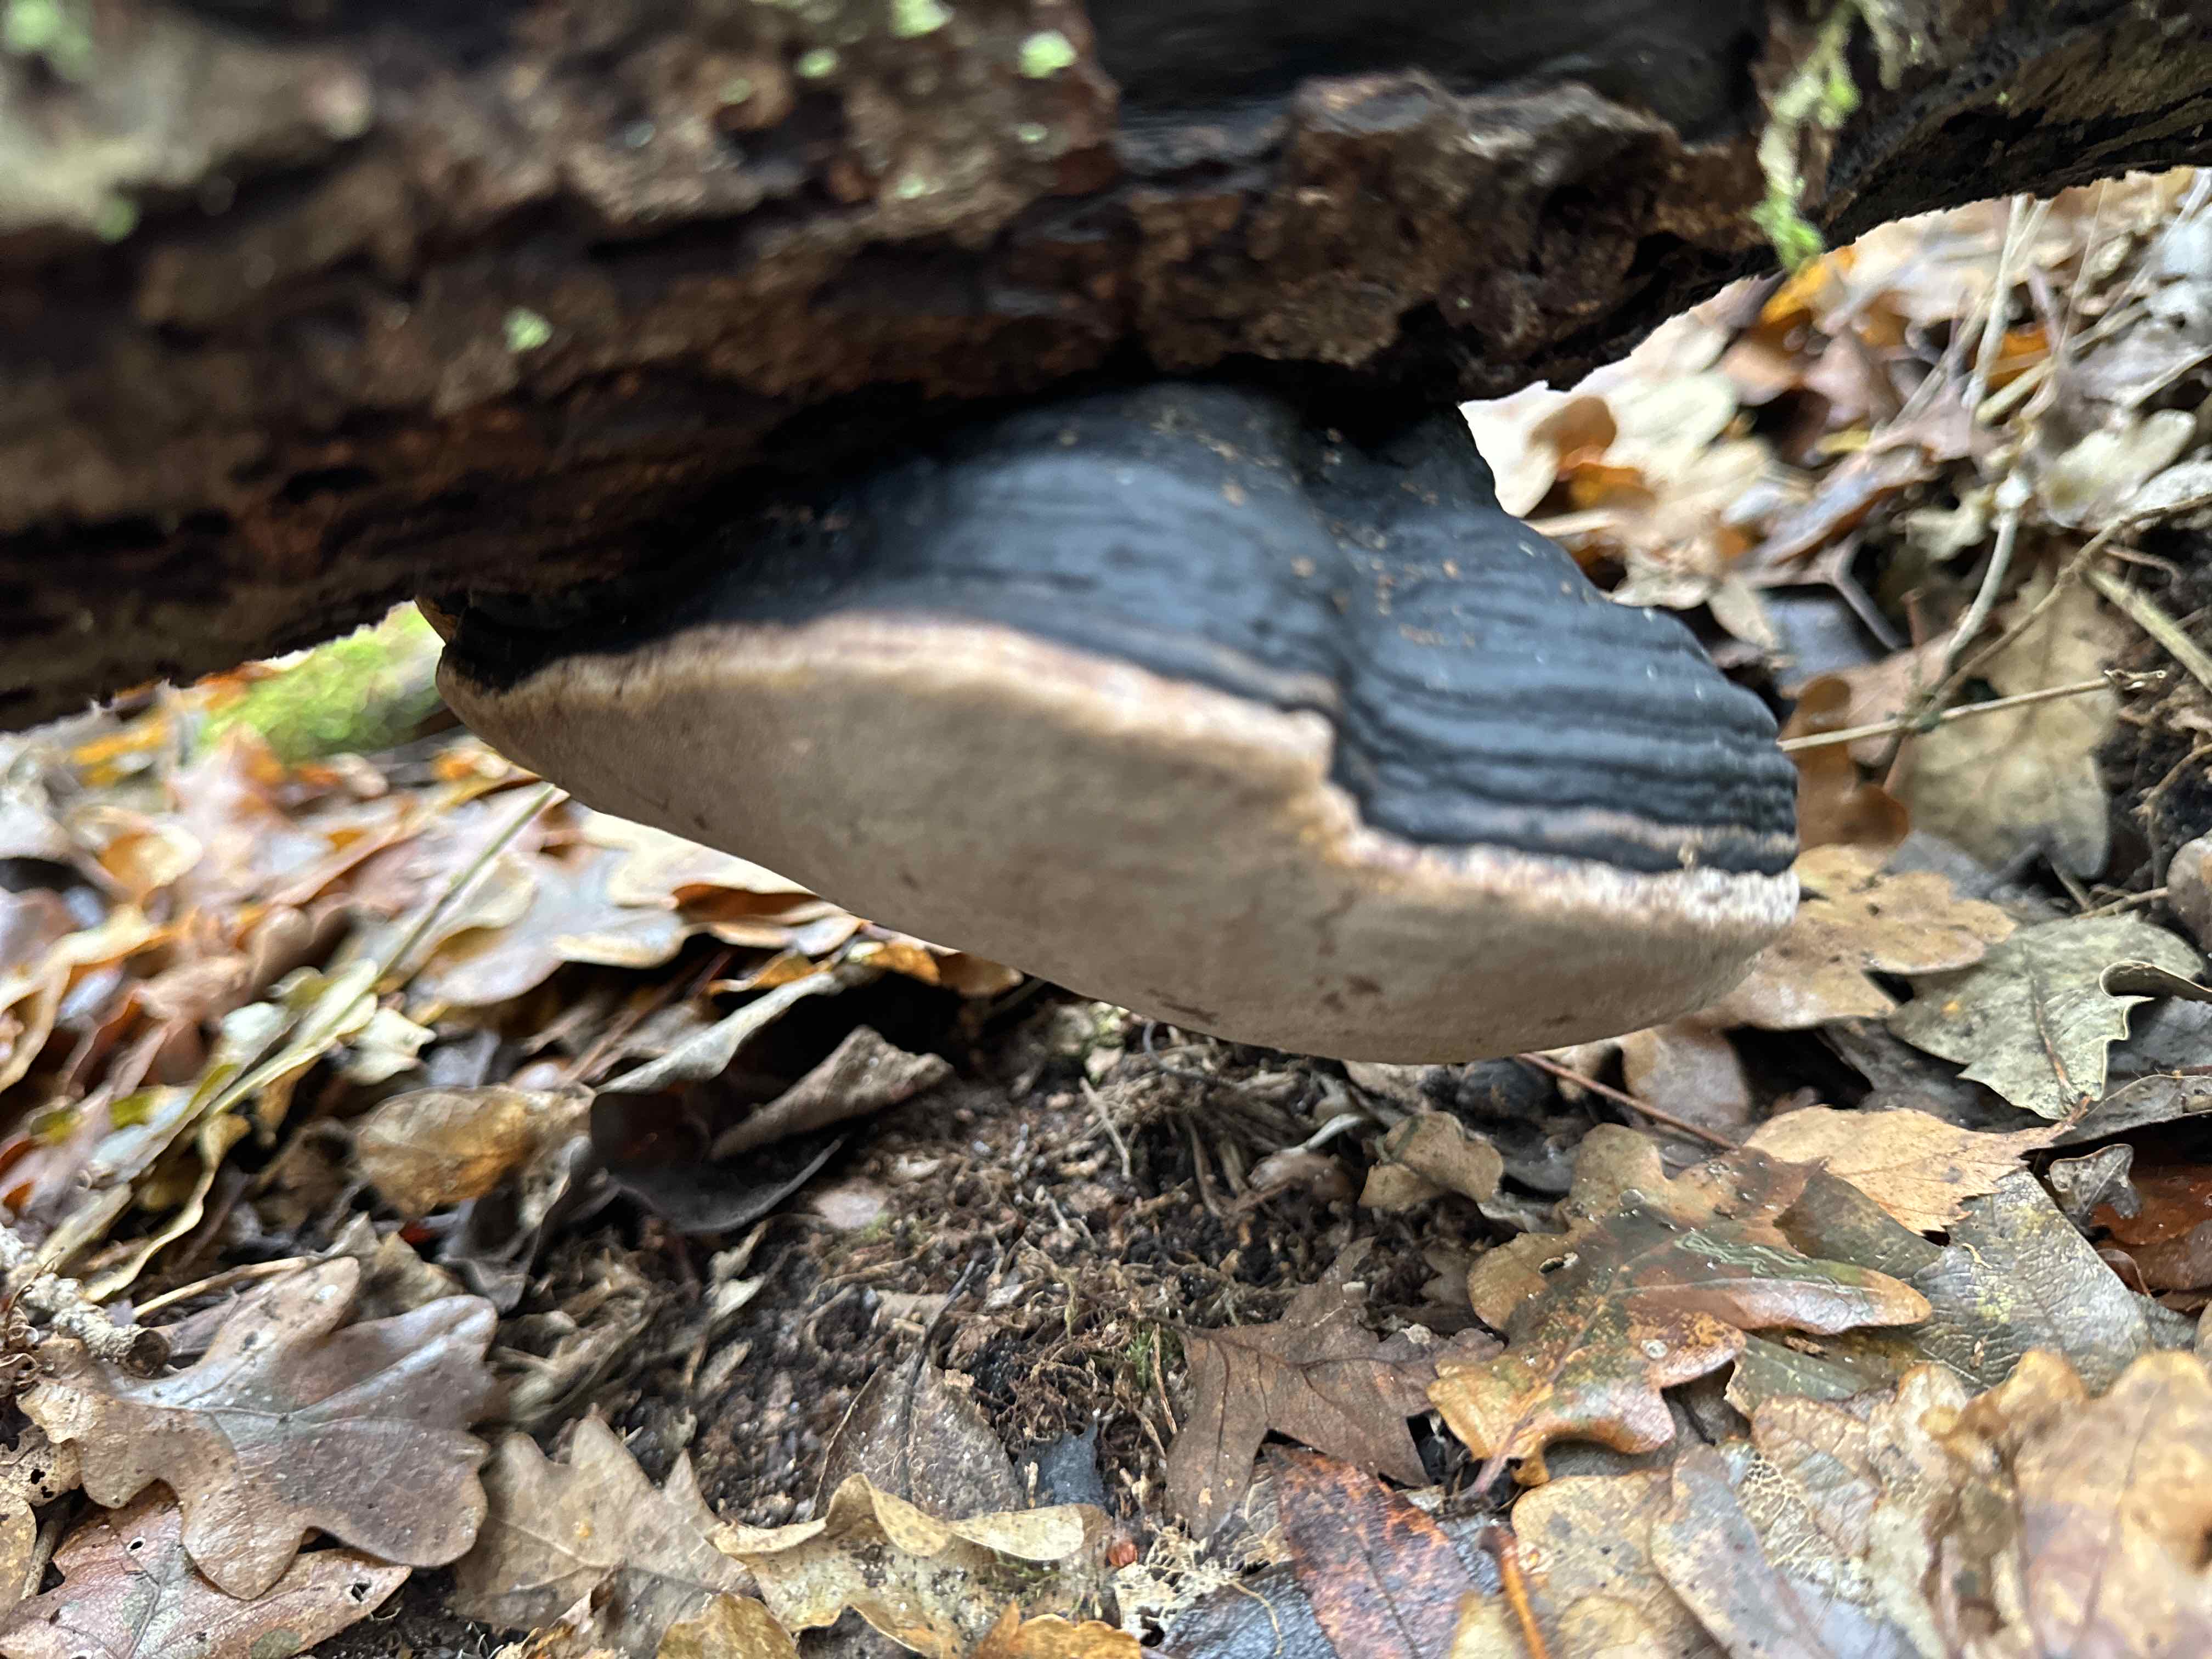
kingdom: Fungi
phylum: Basidiomycota
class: Agaricomycetes
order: Hymenochaetales
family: Hymenochaetaceae
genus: Phellinus
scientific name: Phellinus igniarius
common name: almindelig ildporesvamp
